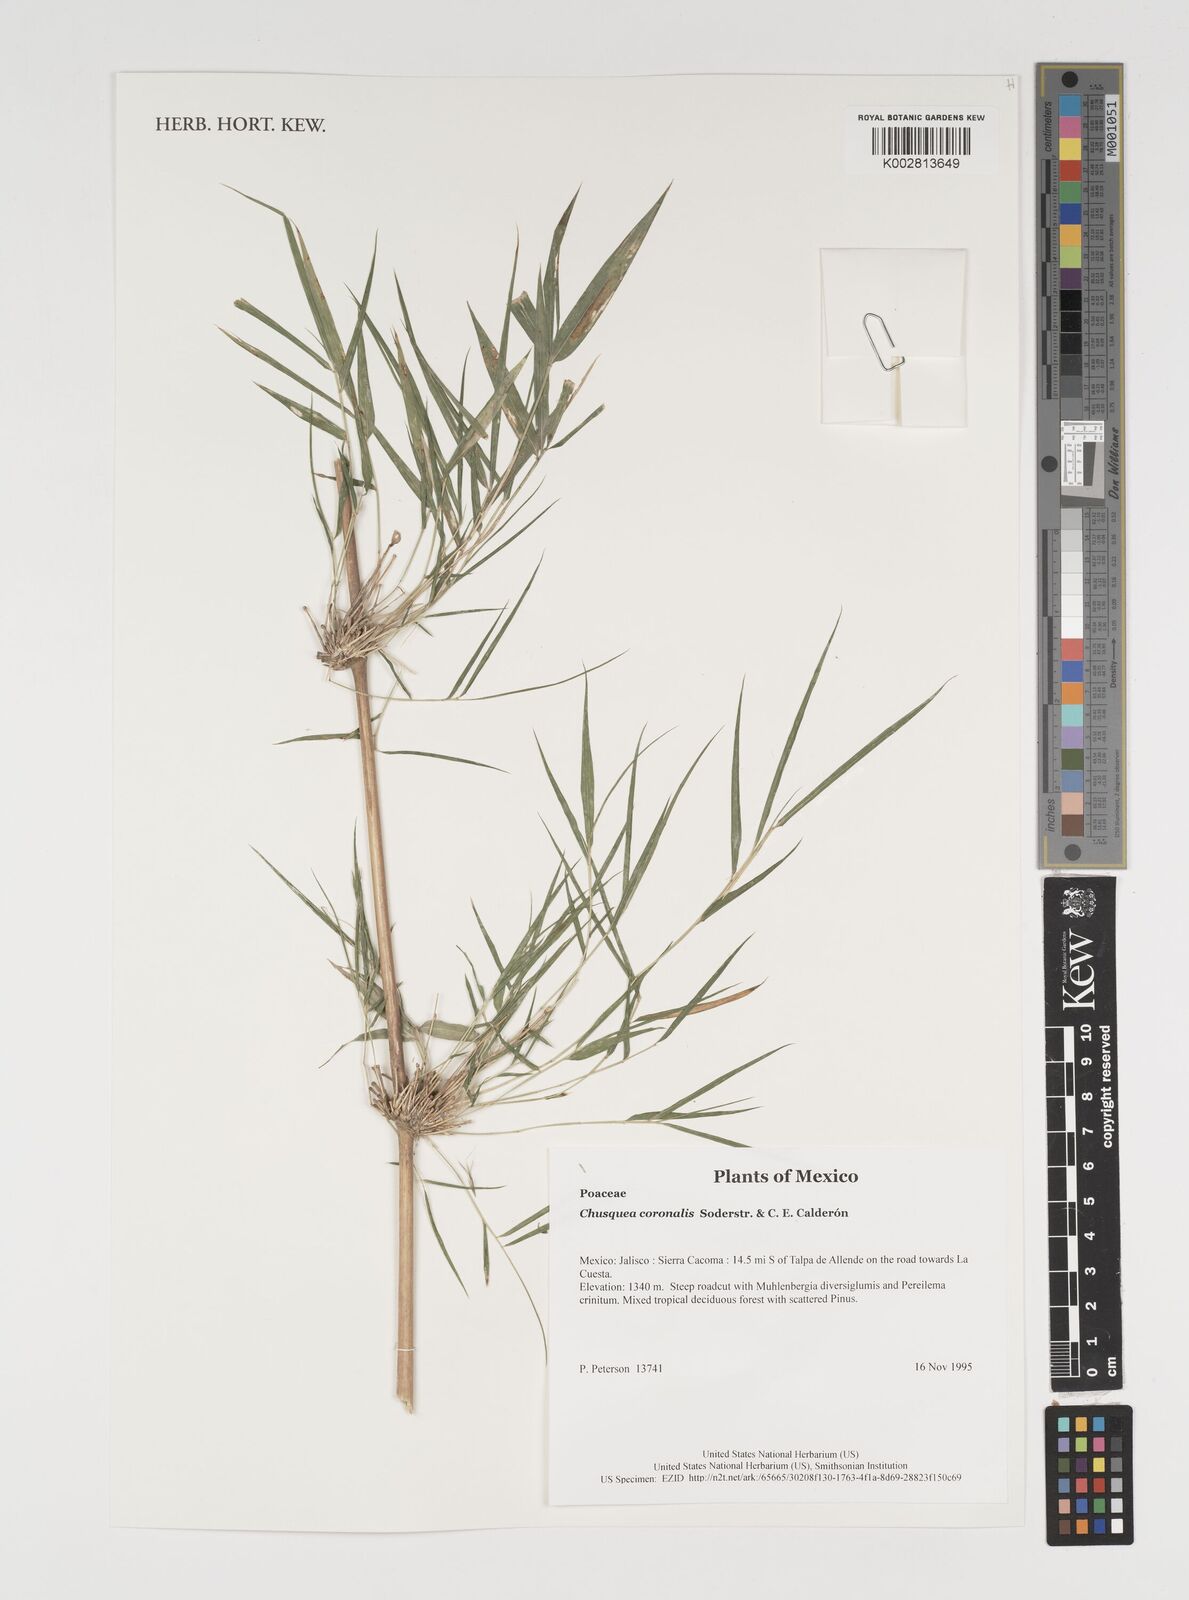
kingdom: Plantae
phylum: Tracheophyta
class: Liliopsida
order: Poales
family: Poaceae
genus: Chusquea
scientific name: Chusquea coronalis
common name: Machris bamboo
